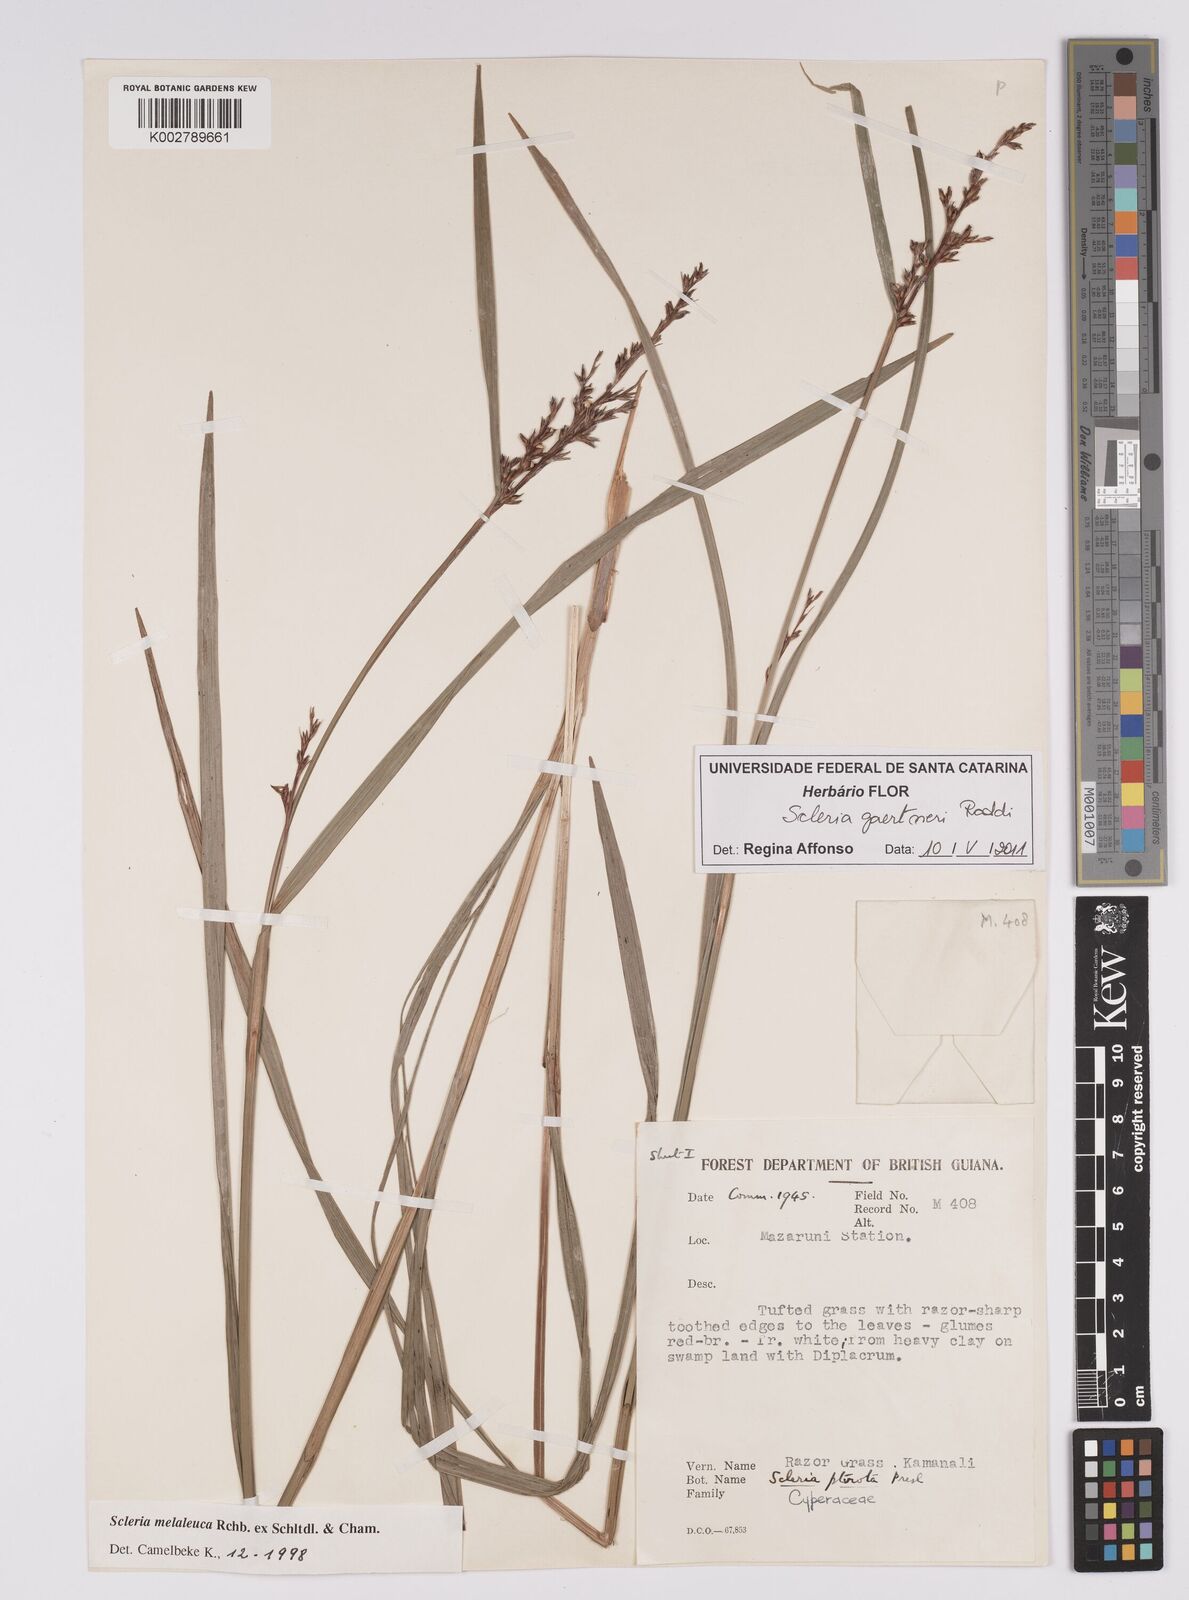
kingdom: Plantae
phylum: Tracheophyta
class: Liliopsida
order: Poales
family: Cyperaceae
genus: Scleria
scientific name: Scleria gaertneri
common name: Cortadera blanca
